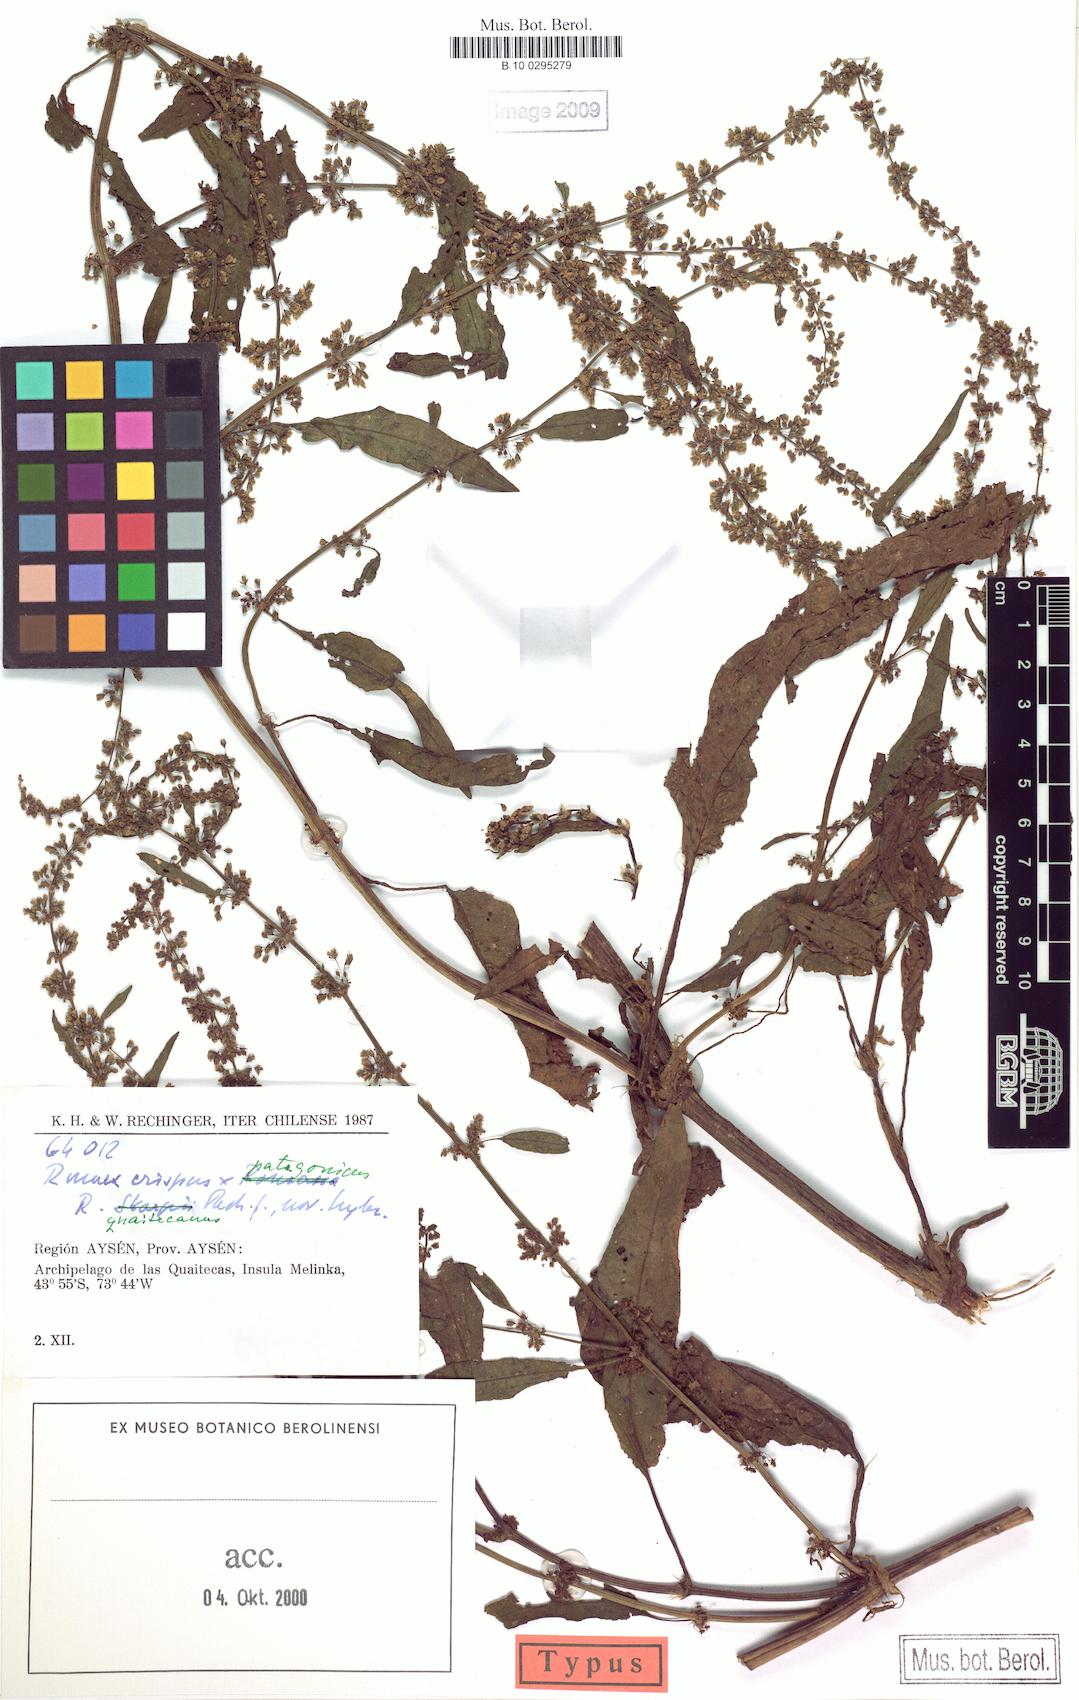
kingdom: Plantae
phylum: Tracheophyta
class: Magnoliopsida
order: Caryophyllales
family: Polygonaceae
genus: Rumex
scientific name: Rumex
